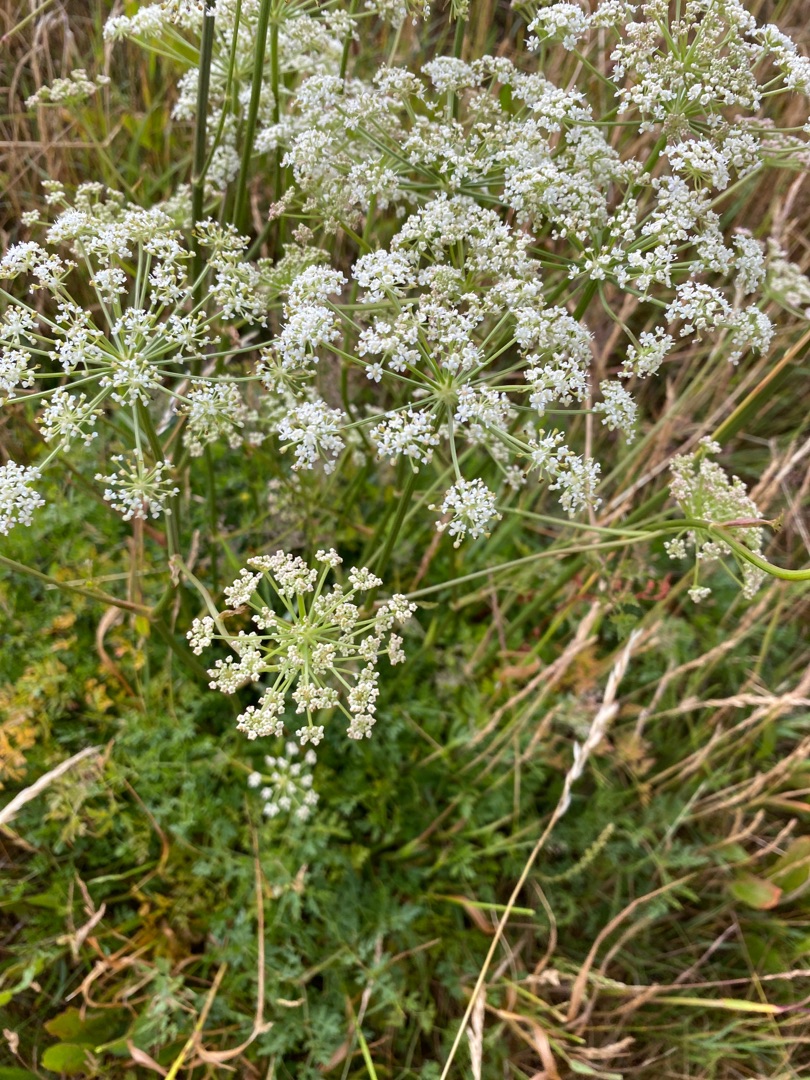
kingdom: Plantae
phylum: Tracheophyta
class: Magnoliopsida
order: Apiales
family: Apiaceae
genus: Oreoselinum
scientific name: Oreoselinum nigrum
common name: Bakke-svovlrod
